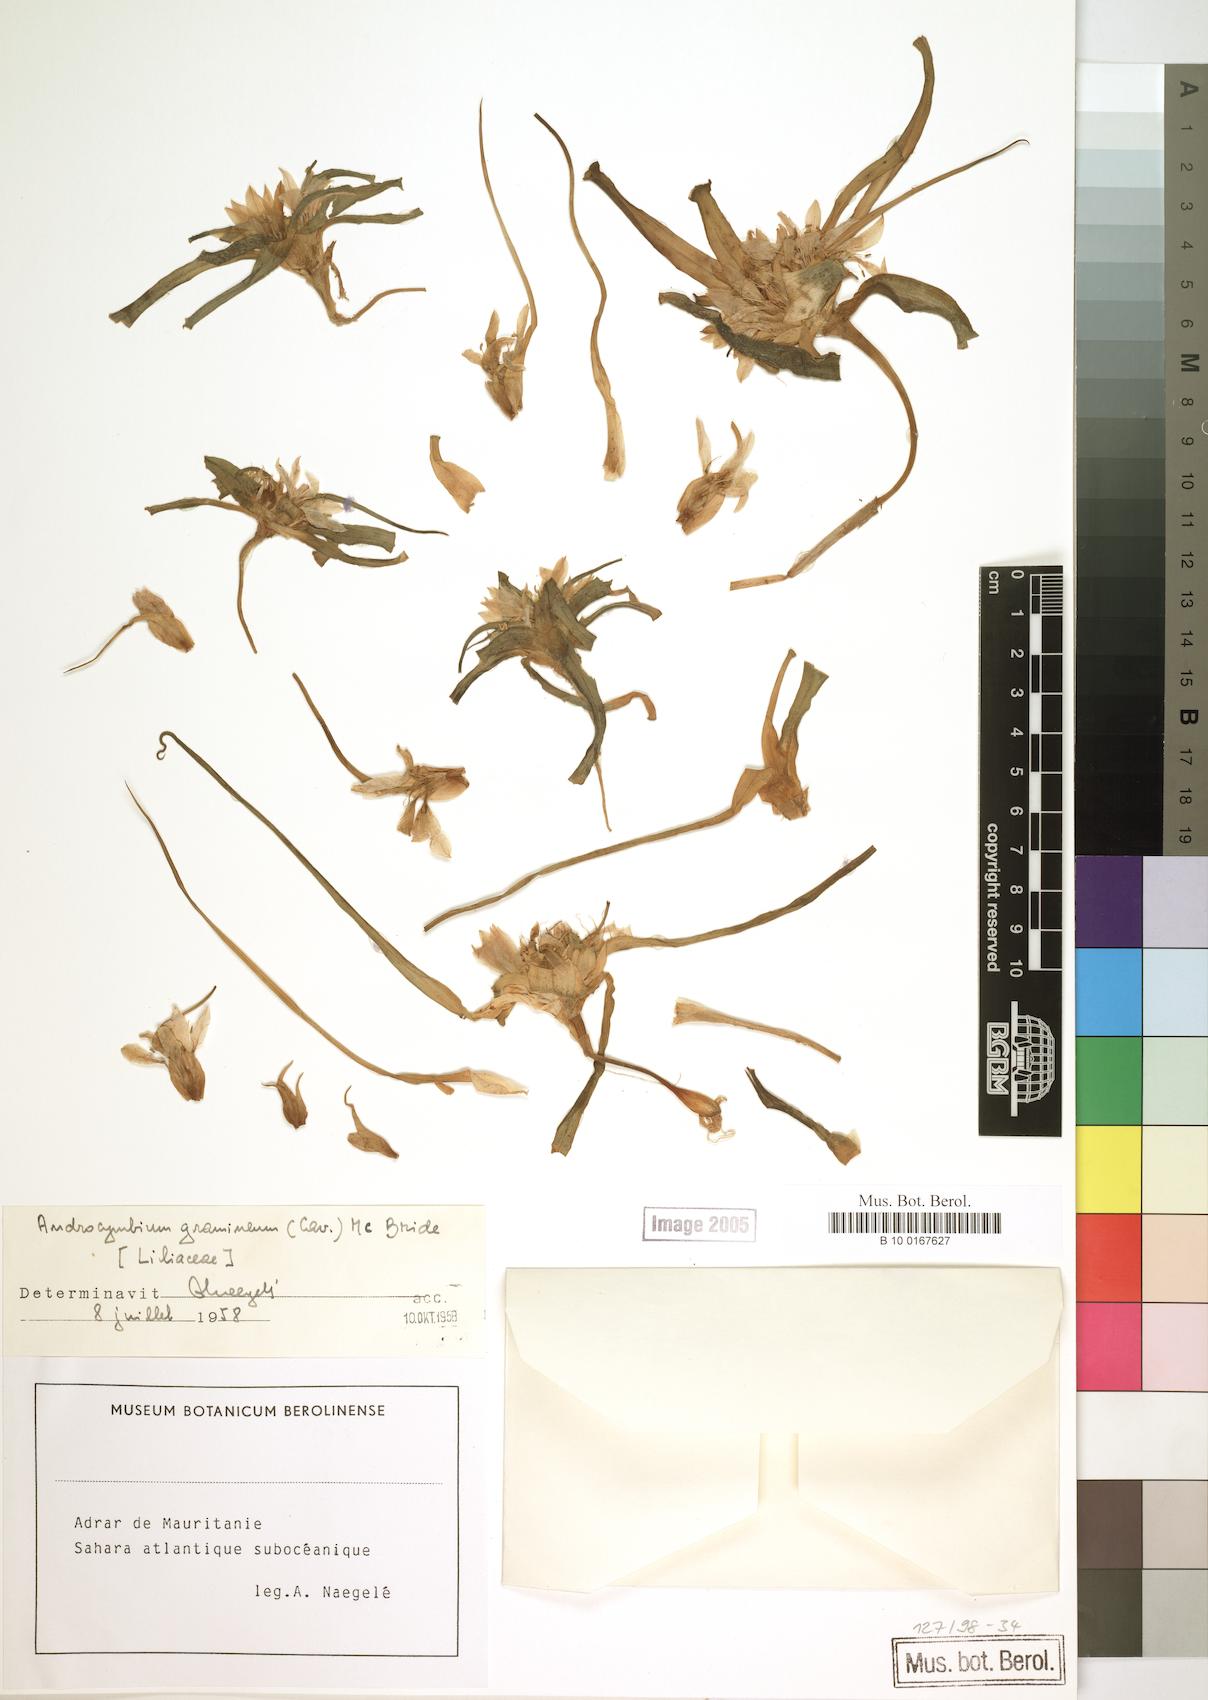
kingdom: Plantae
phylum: Tracheophyta
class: Liliopsida
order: Liliales
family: Colchicaceae
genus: Colchicum
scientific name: Colchicum gramineum
